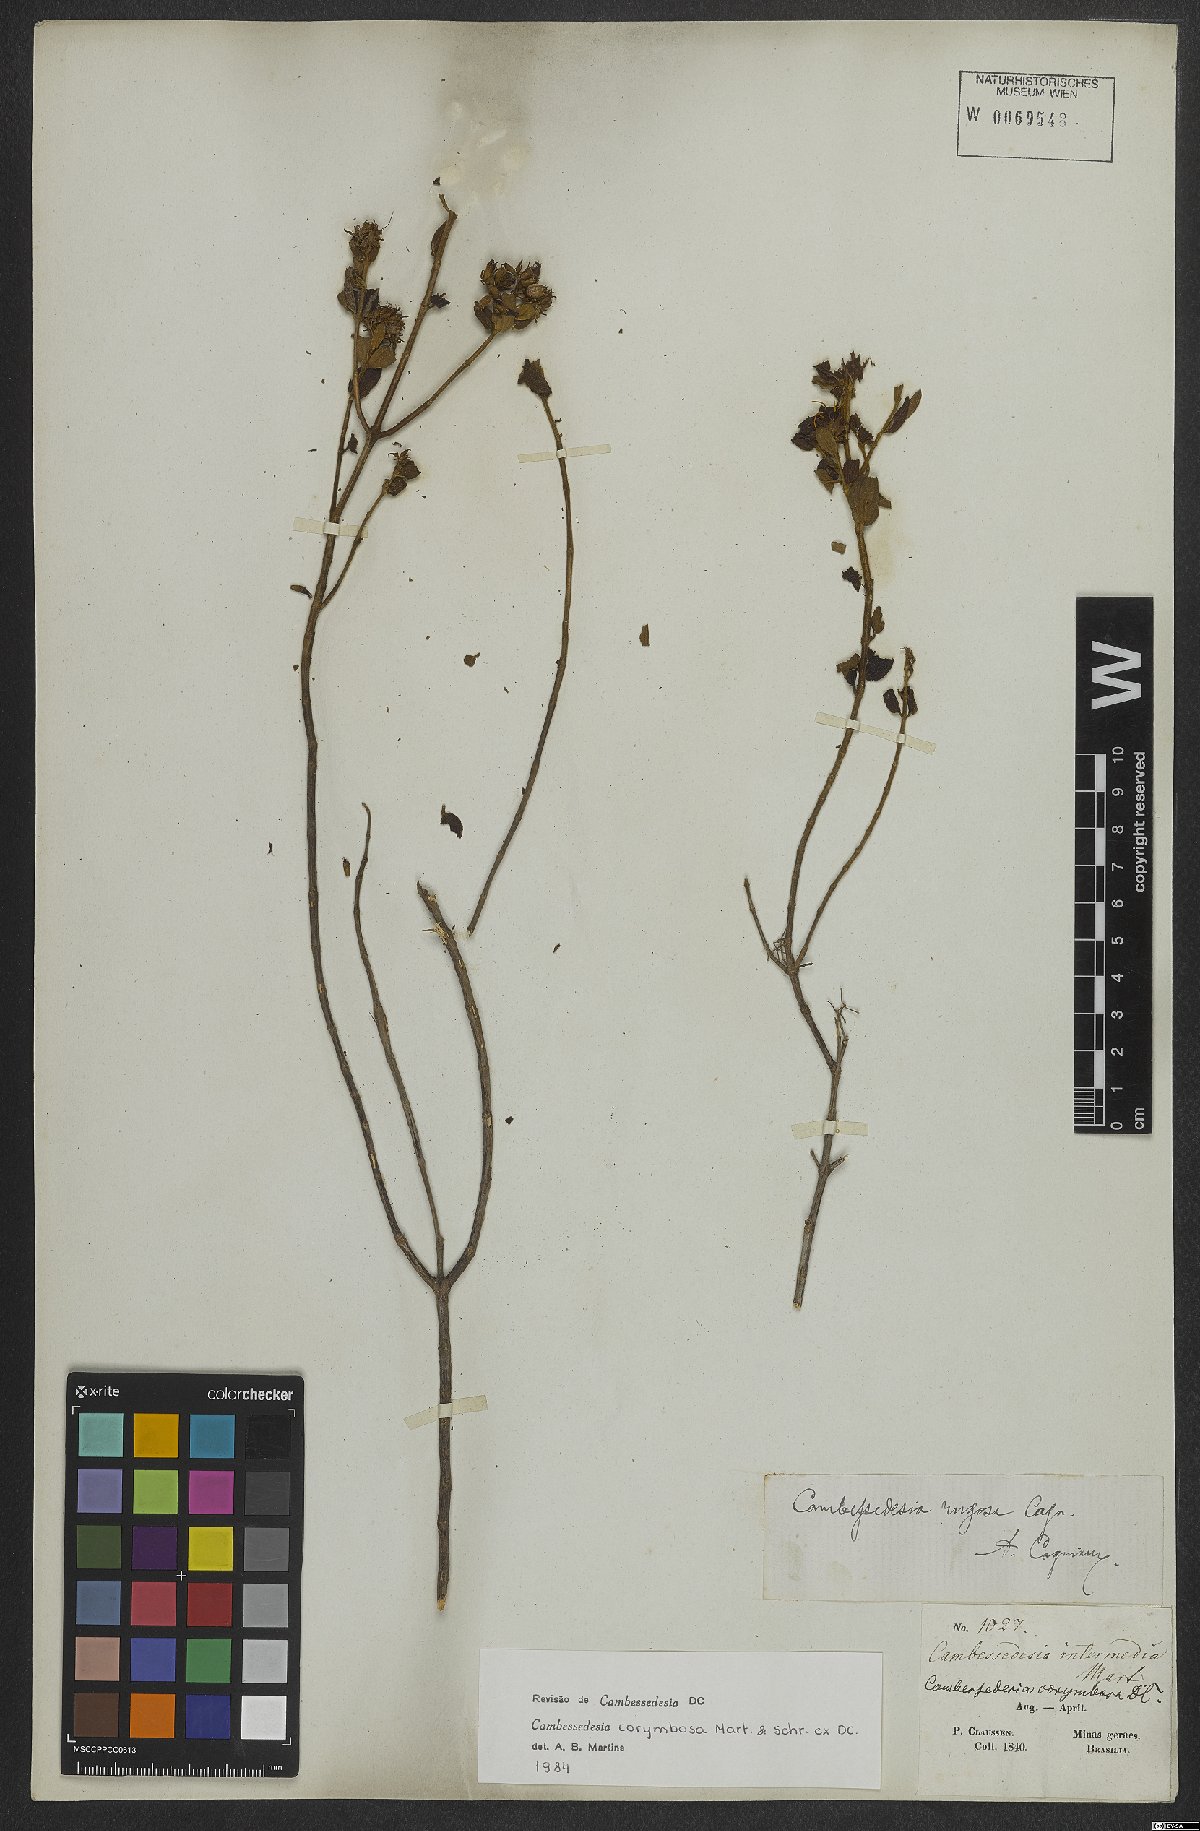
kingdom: Plantae
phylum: Tracheophyta
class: Magnoliopsida
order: Myrtales
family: Melastomataceae
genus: Cambessedesia
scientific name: Cambessedesia corymbosa
